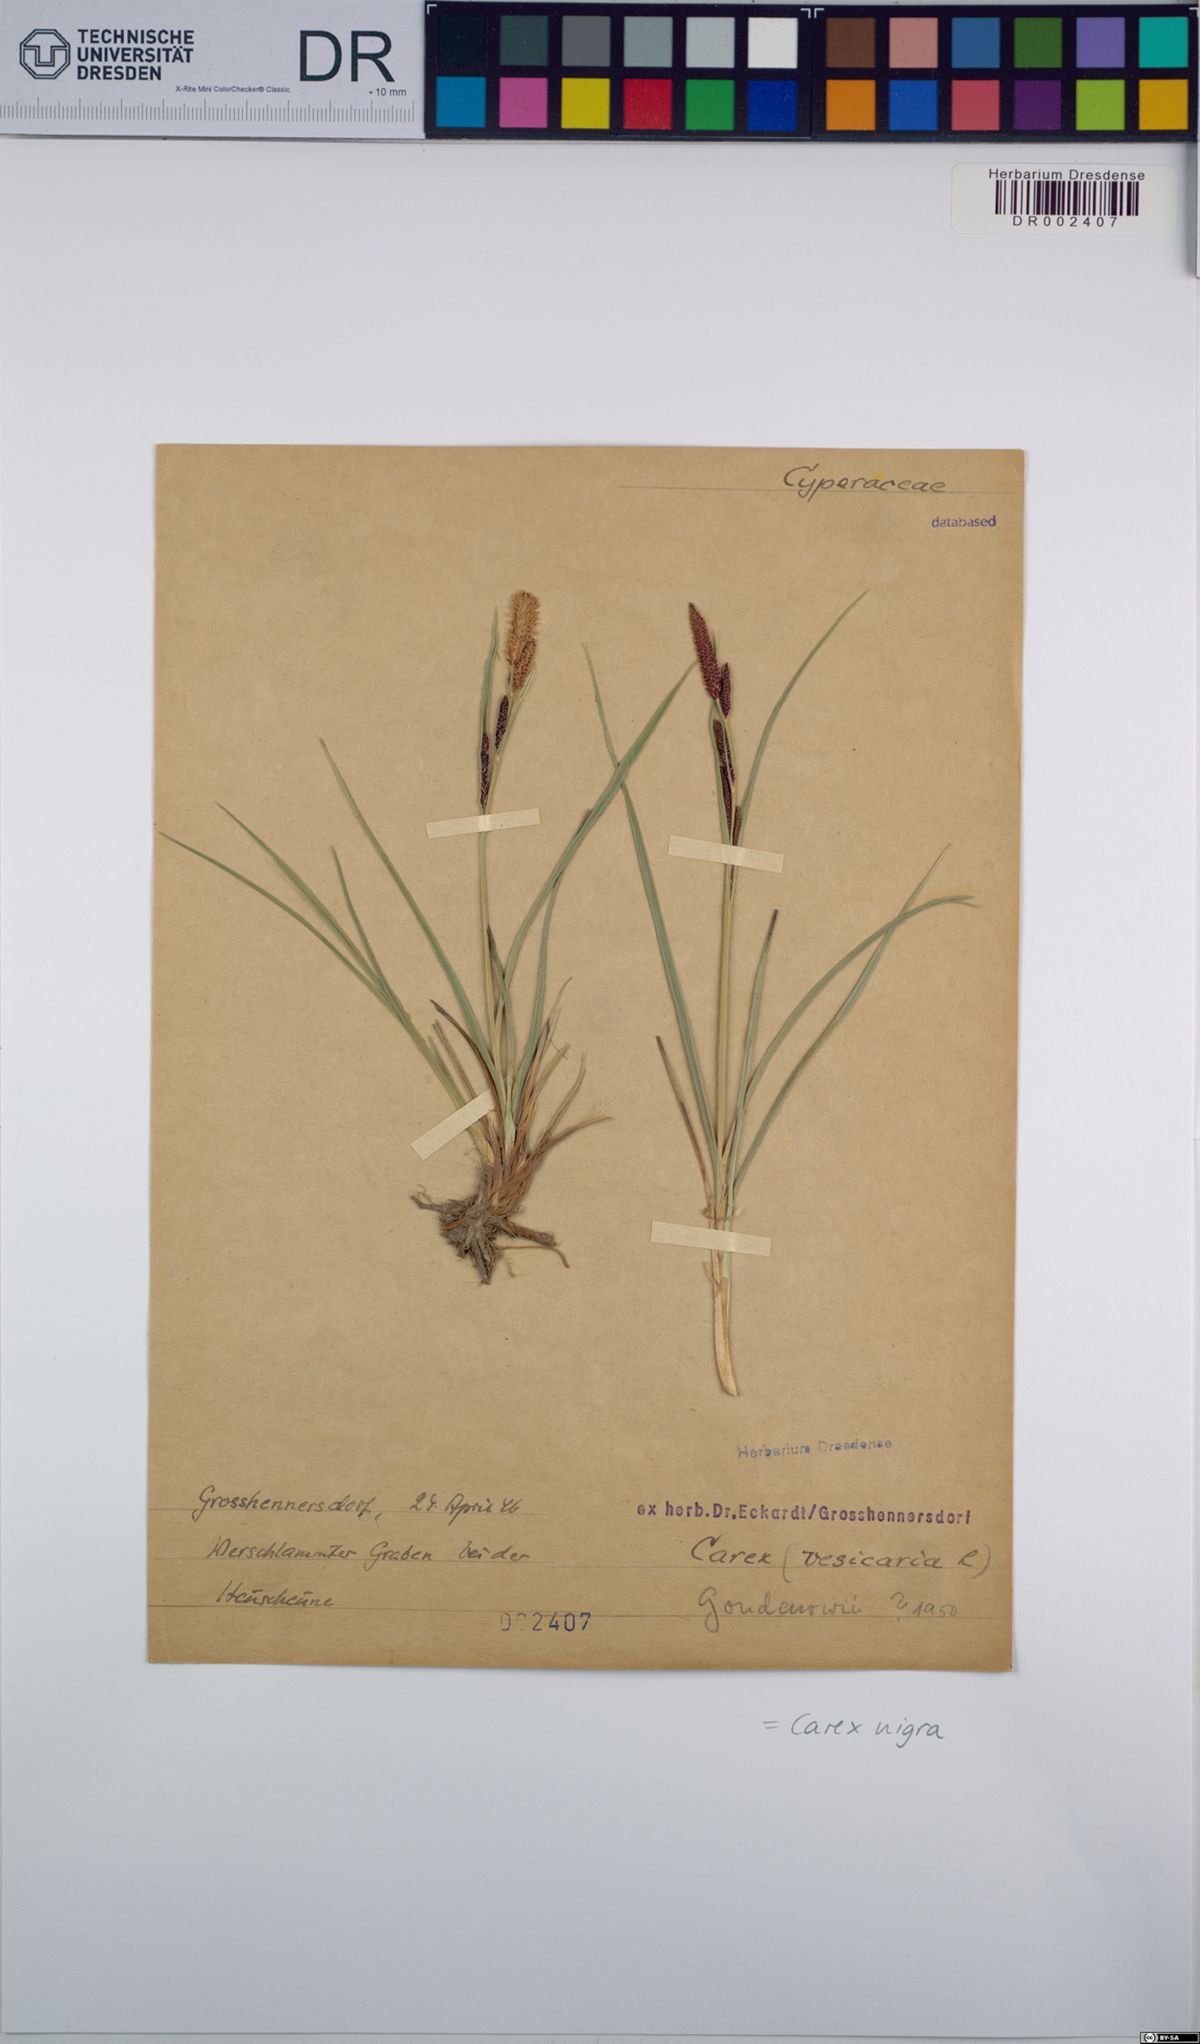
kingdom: Plantae
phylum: Tracheophyta
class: Liliopsida
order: Poales
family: Cyperaceae
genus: Carex
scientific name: Carex nigra
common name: Common sedge
